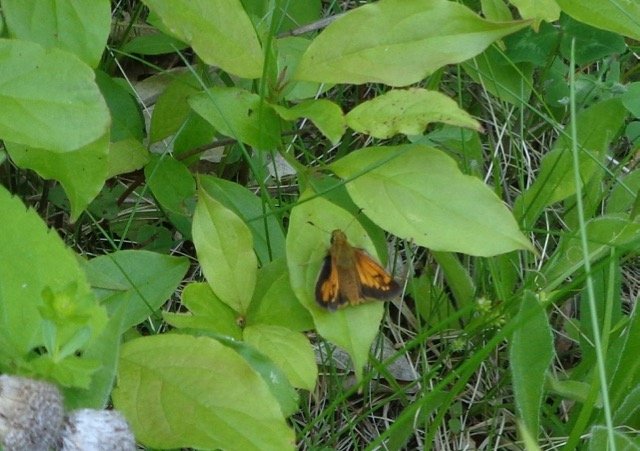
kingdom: Animalia
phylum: Arthropoda
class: Insecta
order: Lepidoptera
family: Hesperiidae
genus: Lon
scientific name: Lon hobomok
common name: Hobomok Skipper
